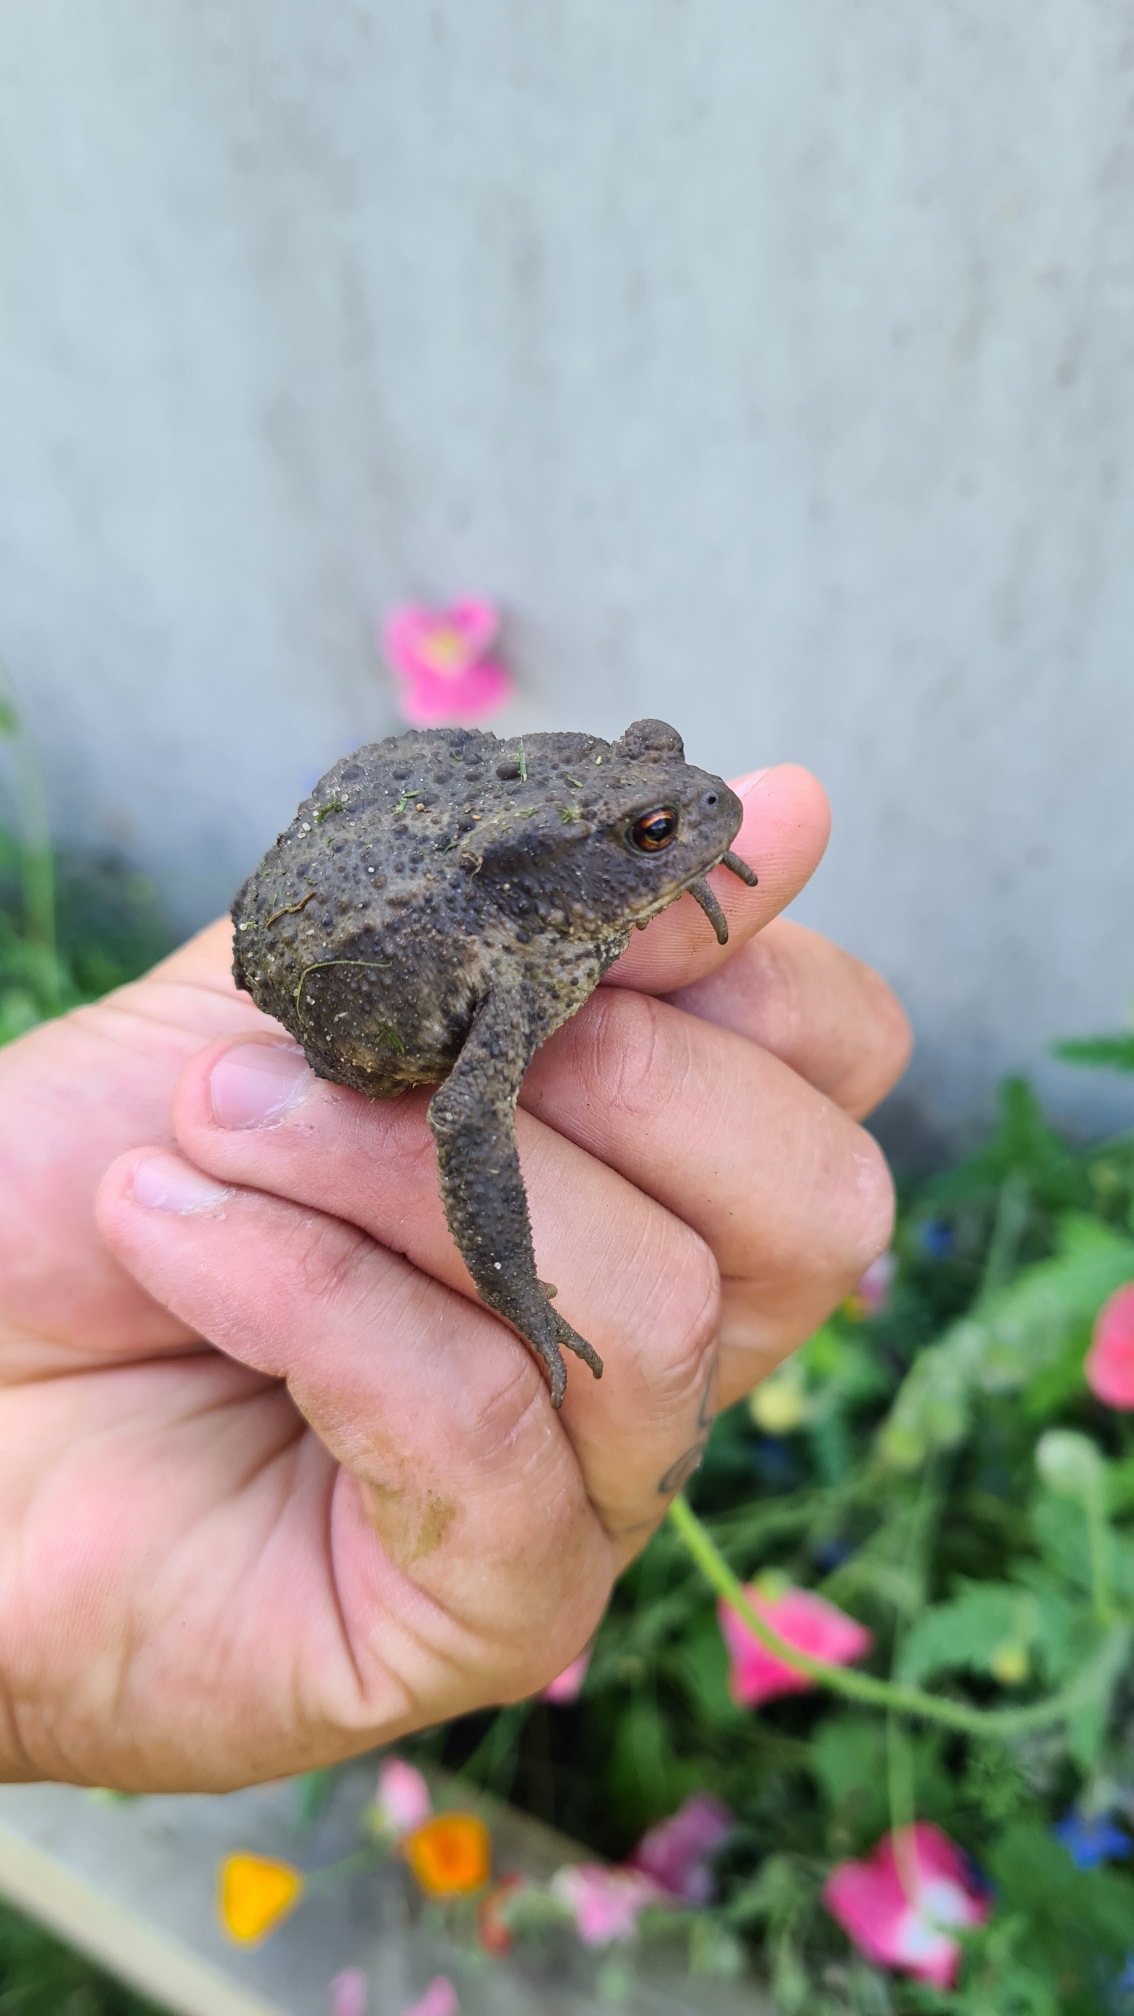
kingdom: Animalia
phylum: Chordata
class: Amphibia
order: Anura
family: Bufonidae
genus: Bufo
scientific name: Bufo bufo
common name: Skrubtudse
